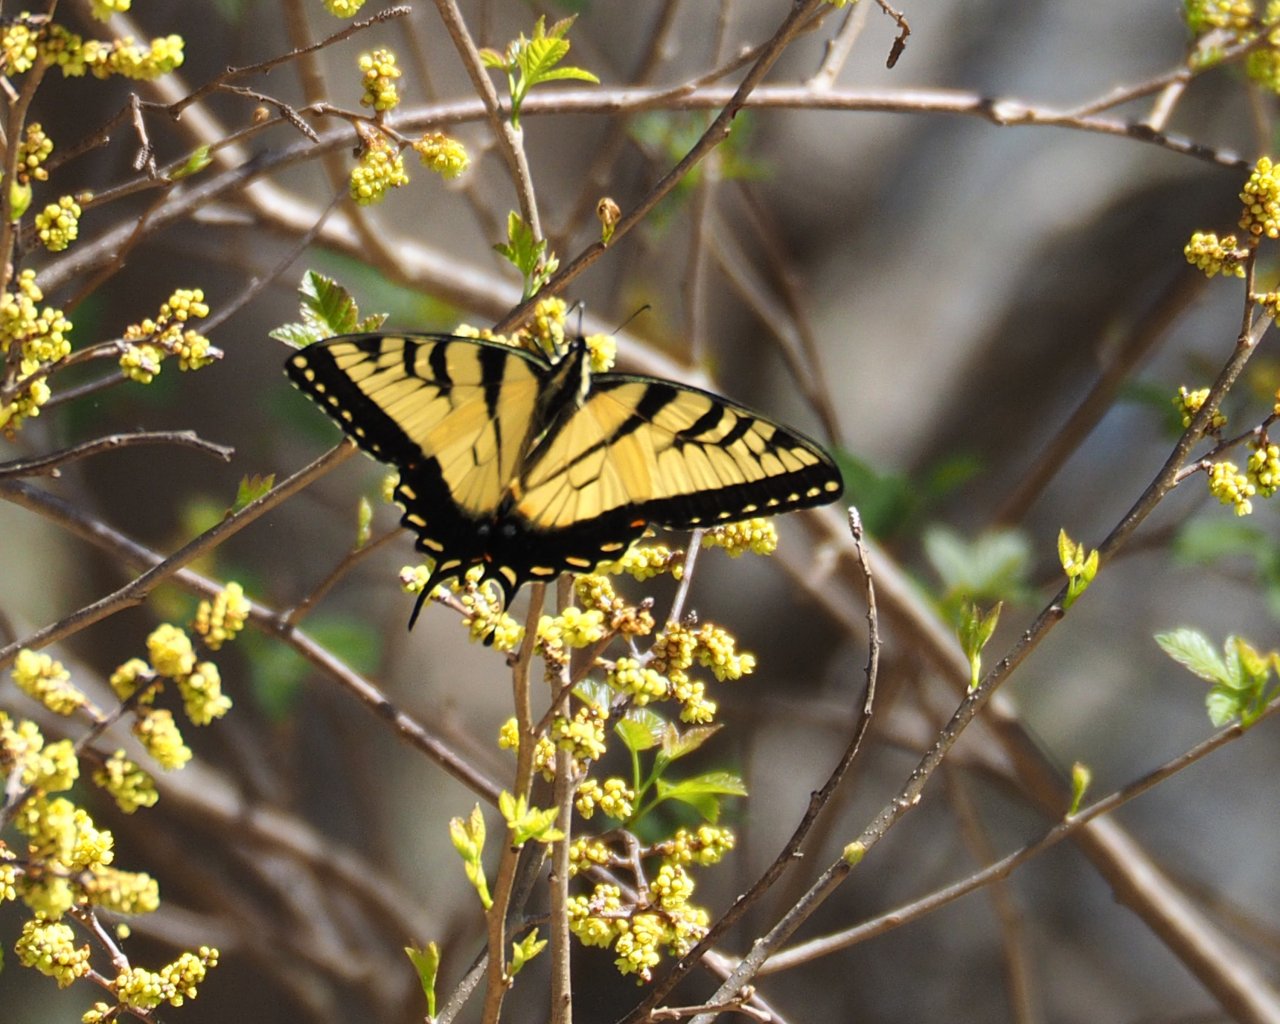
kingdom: Animalia
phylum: Arthropoda
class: Insecta
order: Lepidoptera
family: Papilionidae
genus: Pterourus
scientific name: Pterourus glaucus
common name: Eastern Tiger Swallowtail
